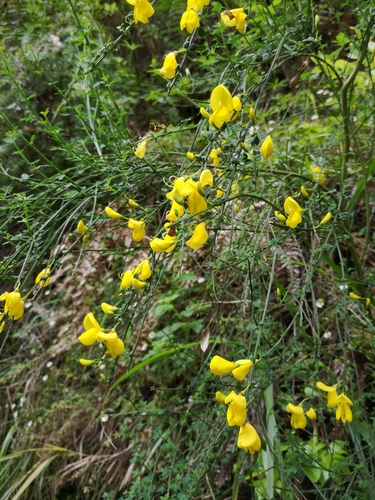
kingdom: Plantae
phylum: Tracheophyta
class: Magnoliopsida
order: Fabales
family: Fabaceae
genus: Cytisus
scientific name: Cytisus scoparius
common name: Scotch broom
